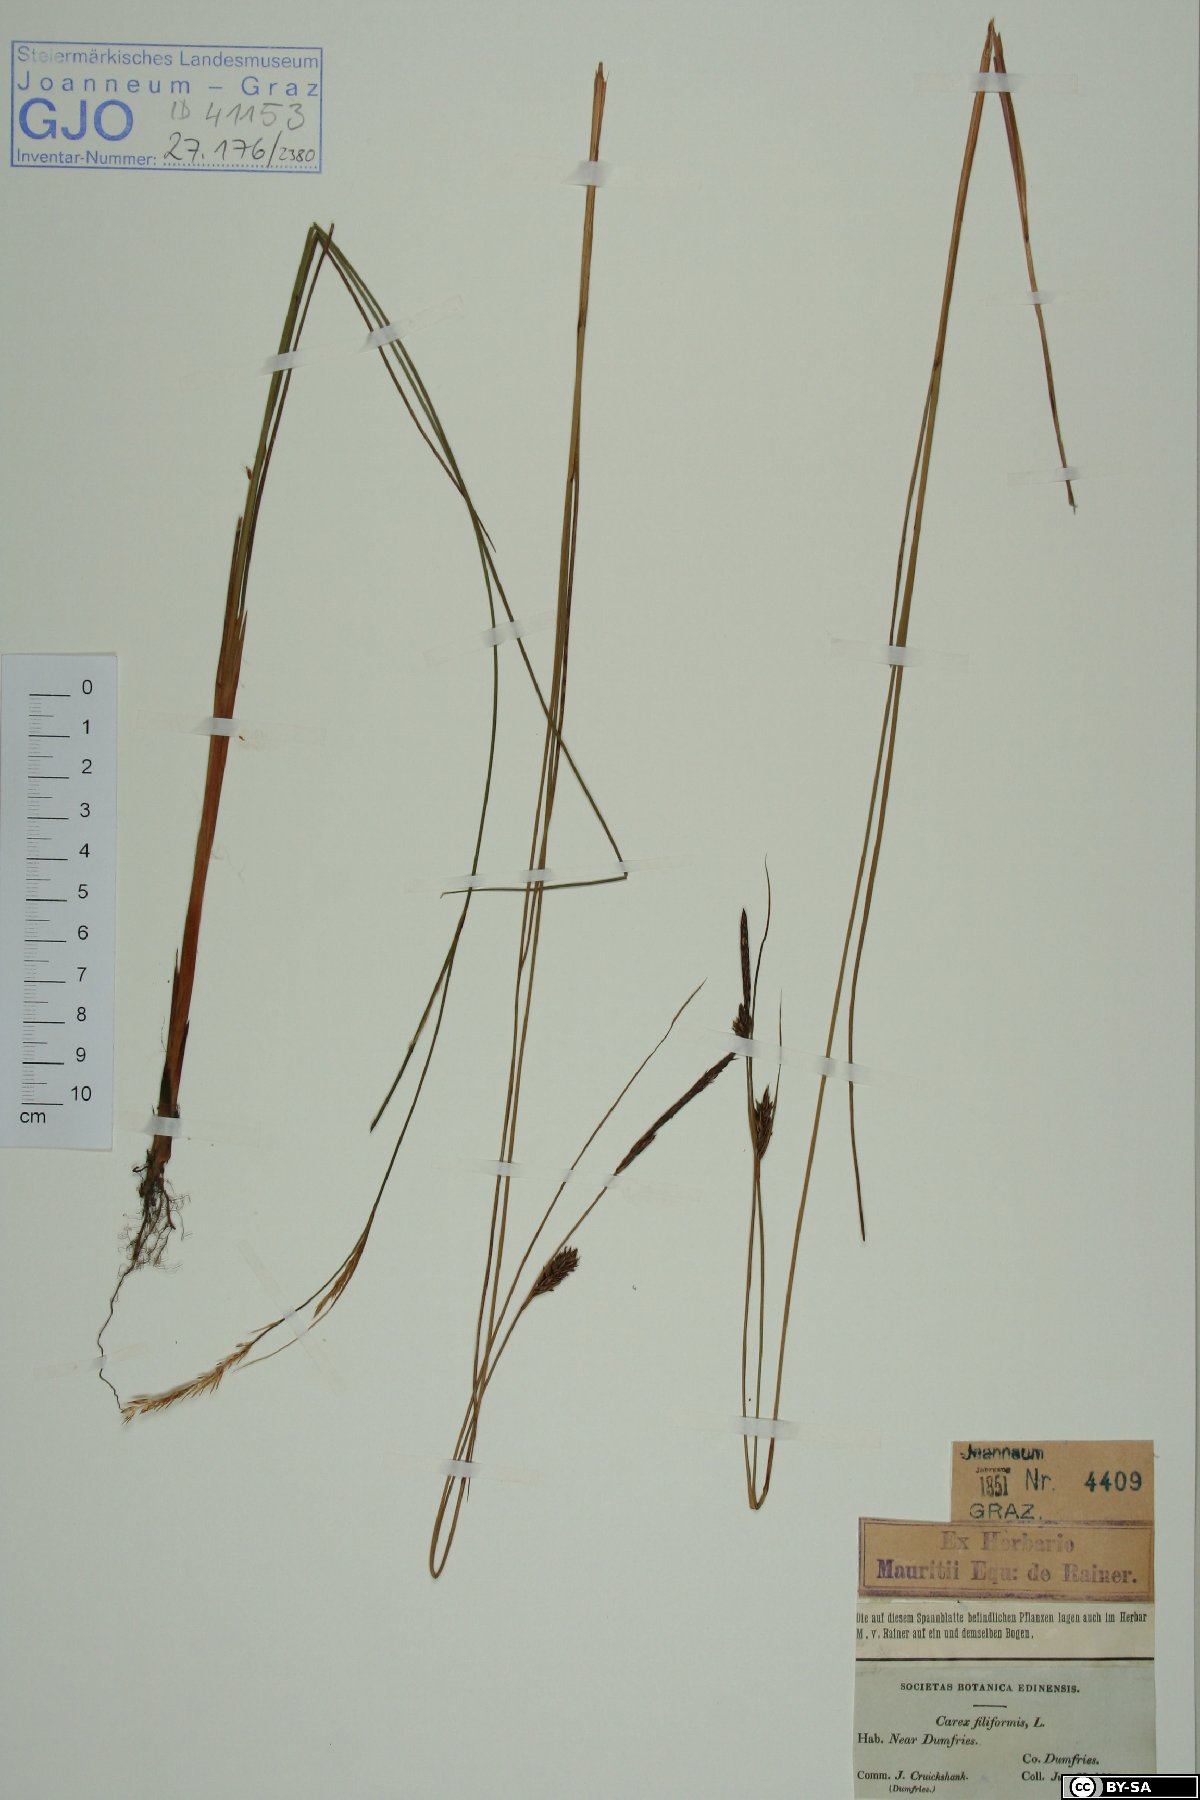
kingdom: Plantae
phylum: Tracheophyta
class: Liliopsida
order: Poales
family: Cyperaceae
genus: Carex
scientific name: Carex montana
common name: Soft-leaved sedge
